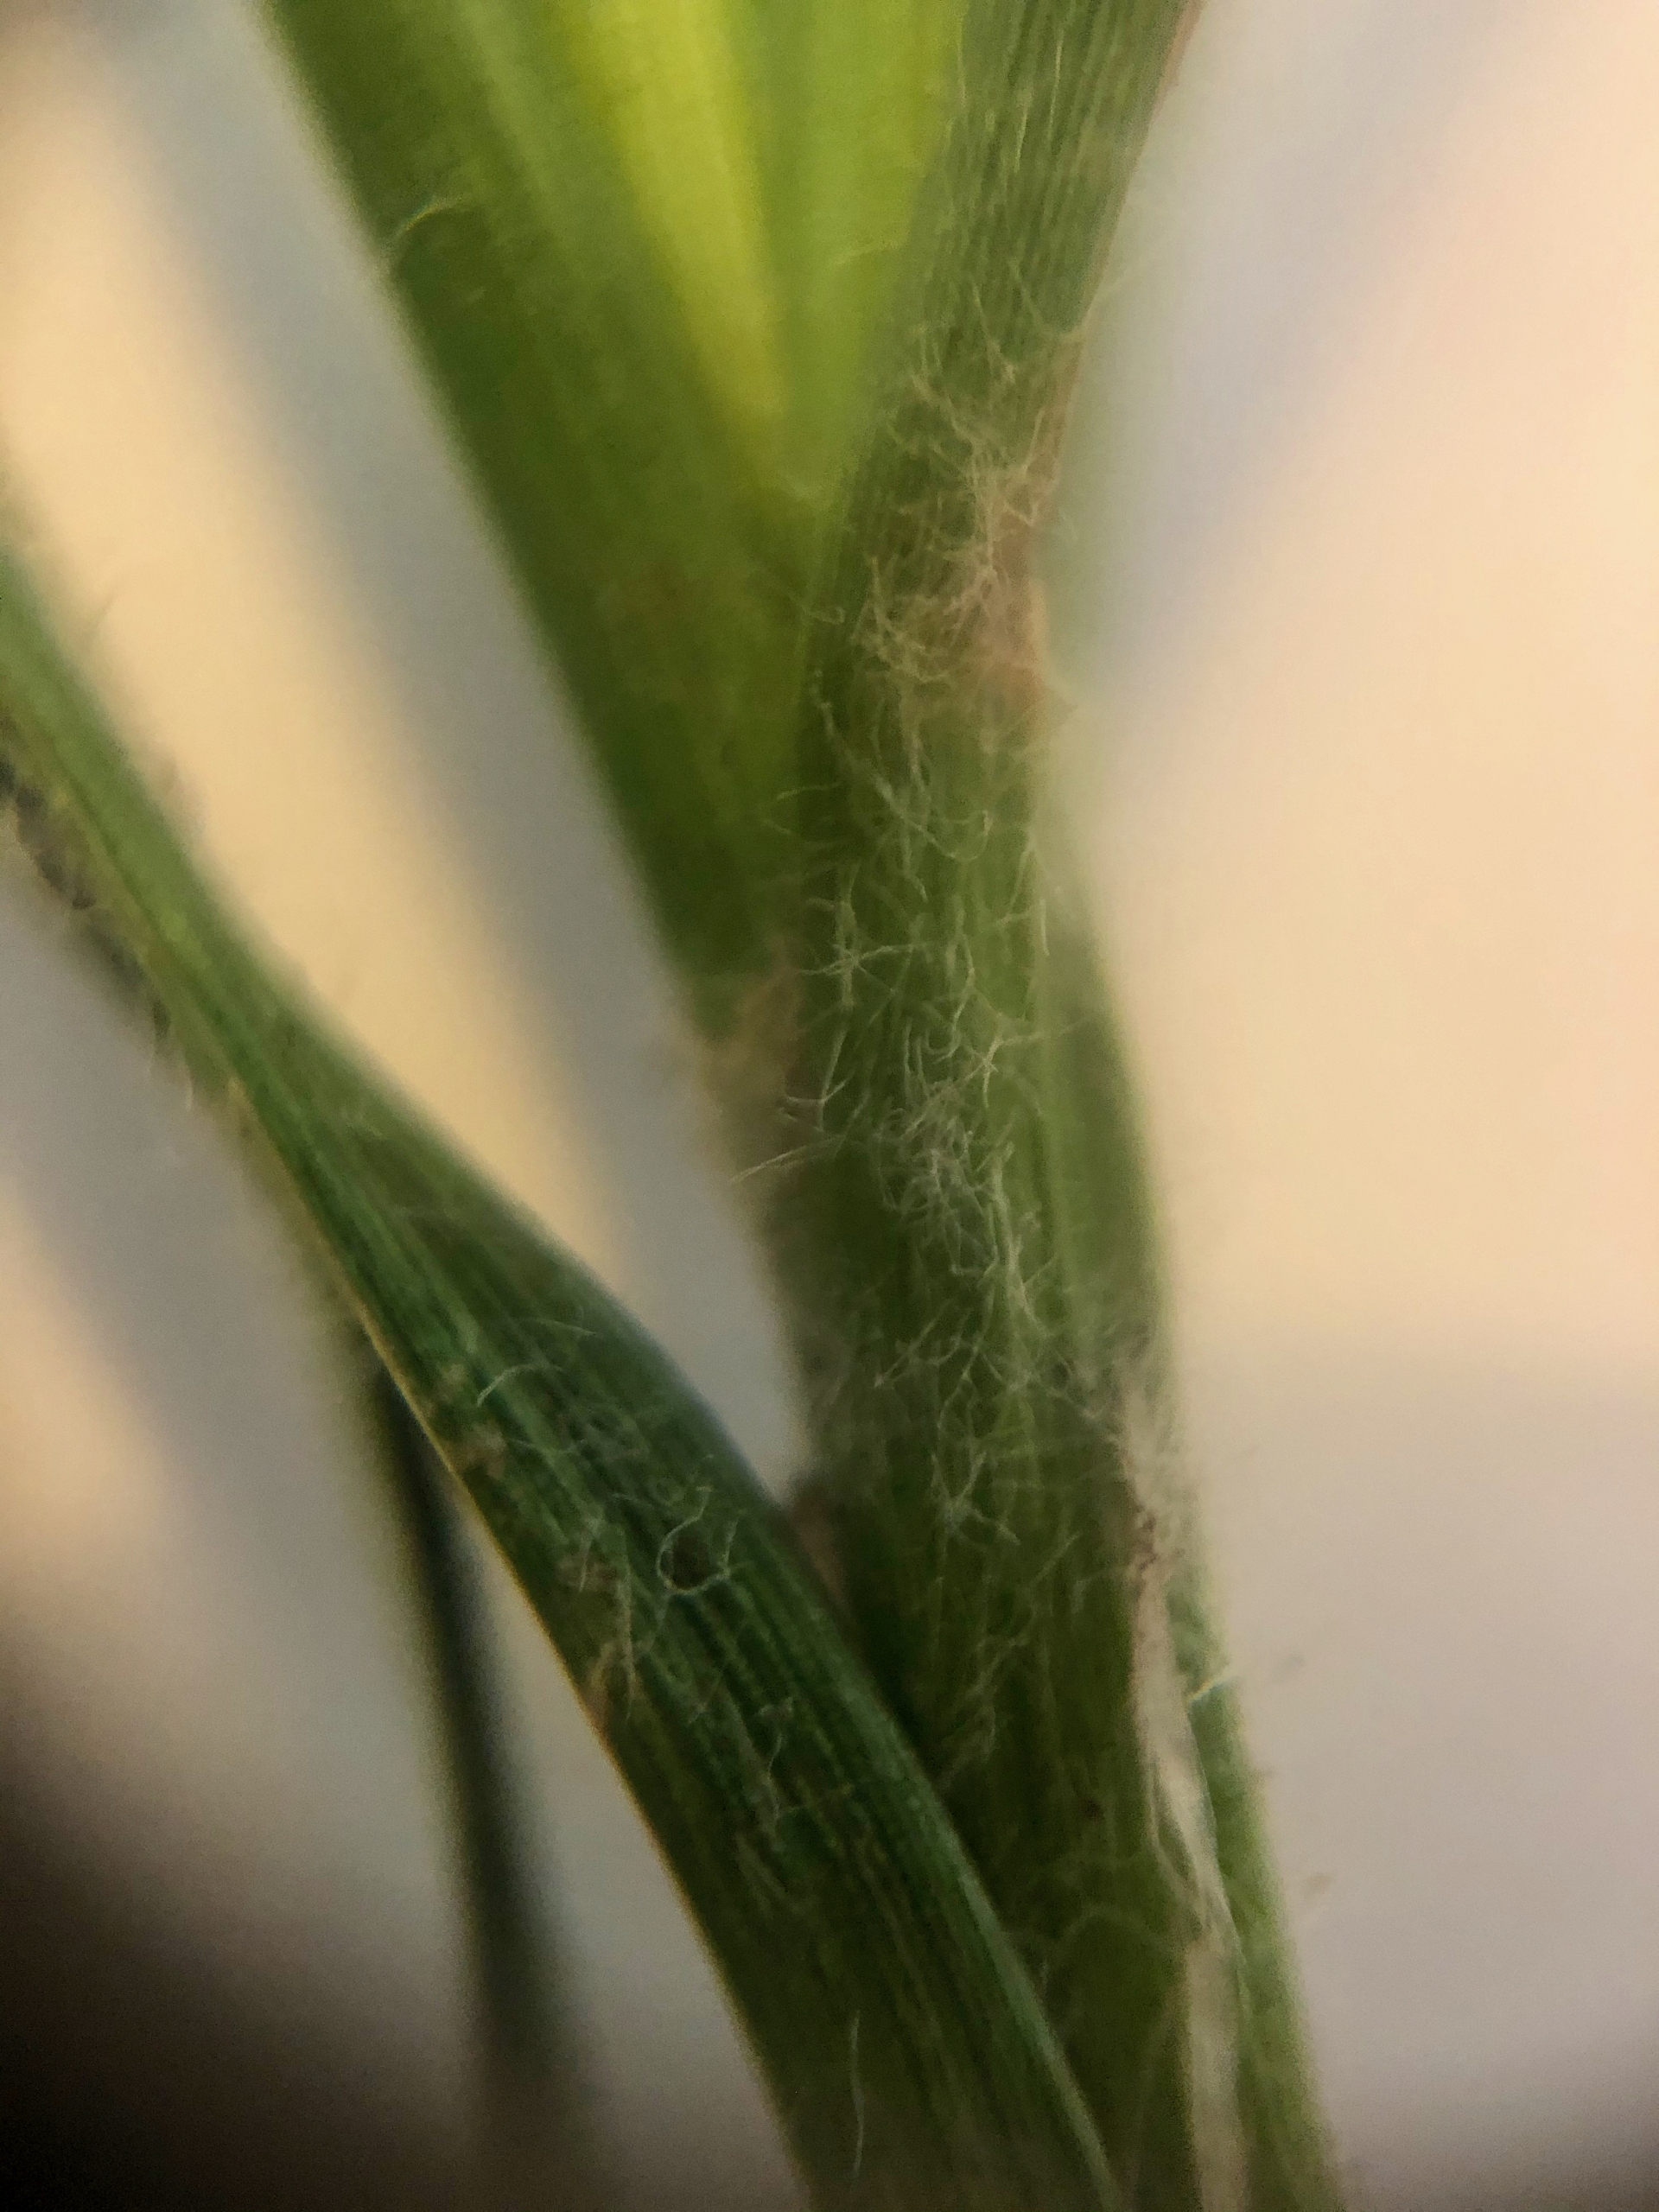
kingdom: Plantae
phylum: Tracheophyta
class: Liliopsida
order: Poales
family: Cyperaceae
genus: Carex
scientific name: Carex hirta
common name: Håret star
